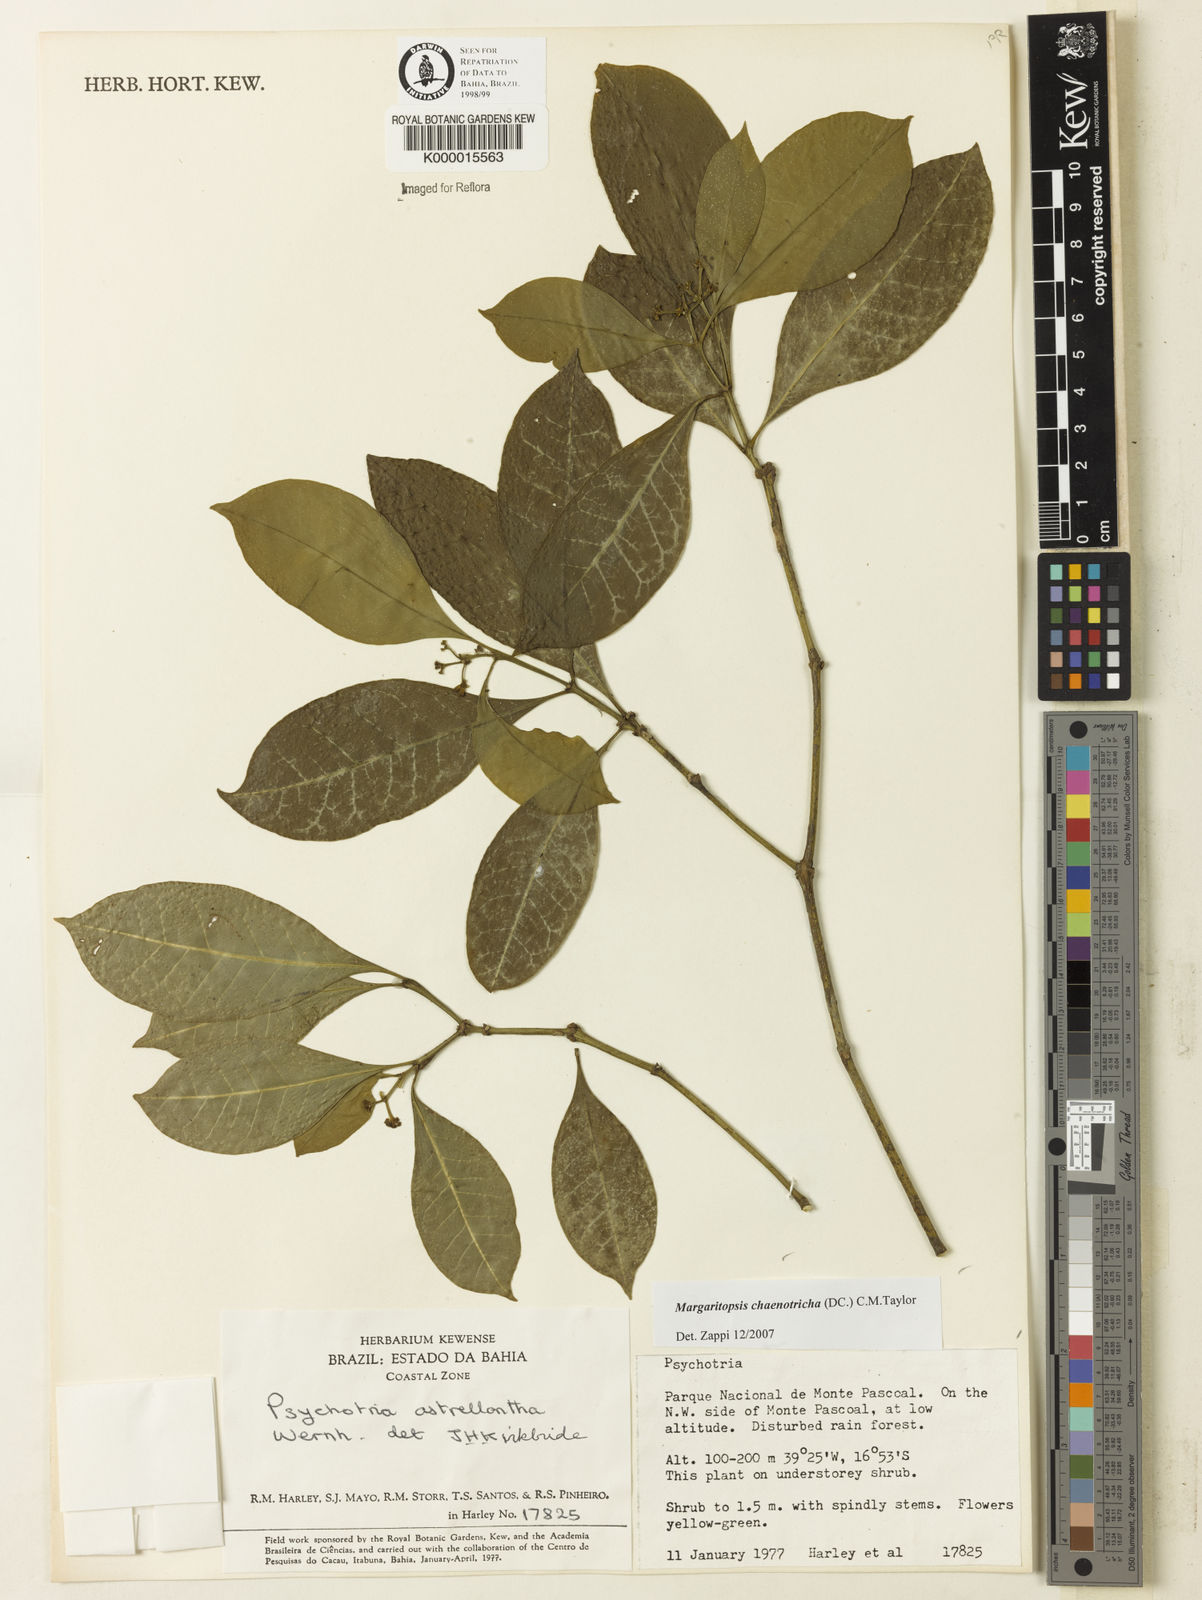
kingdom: Plantae
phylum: Tracheophyta
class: Magnoliopsida
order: Gentianales
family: Rubiaceae
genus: Eumachia
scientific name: Eumachia chaenotricha
